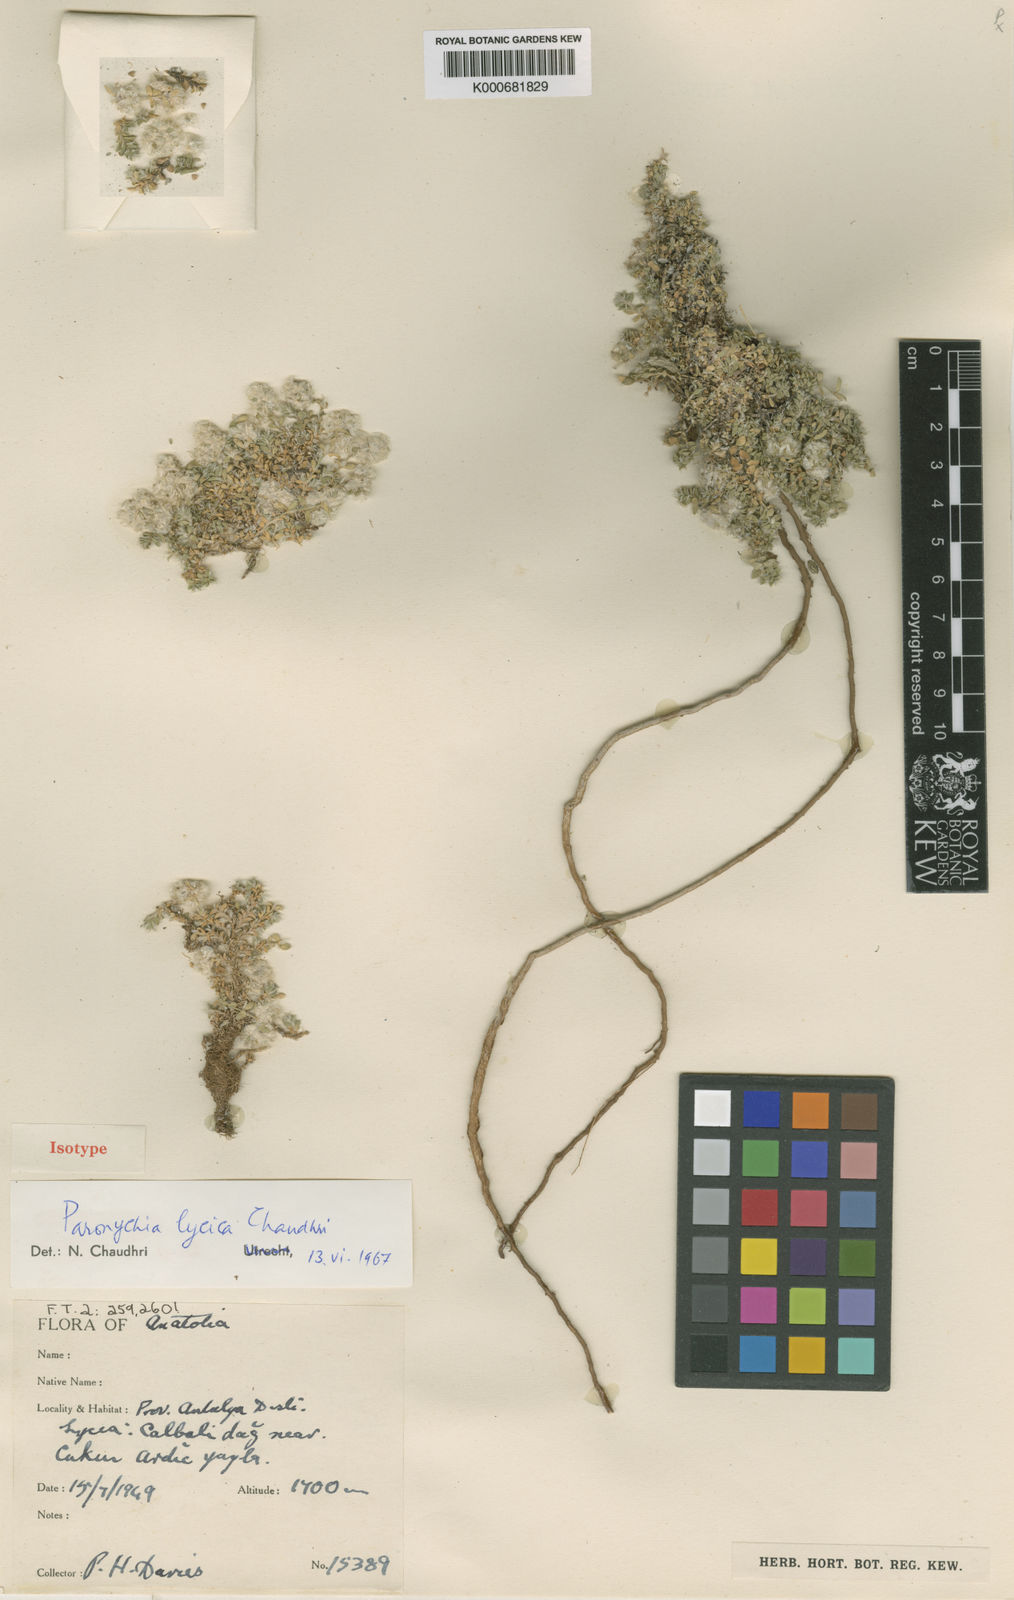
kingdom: Plantae
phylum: Tracheophyta
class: Magnoliopsida
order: Caryophyllales
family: Caryophyllaceae
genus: Paronychia
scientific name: Paronychia lycica
